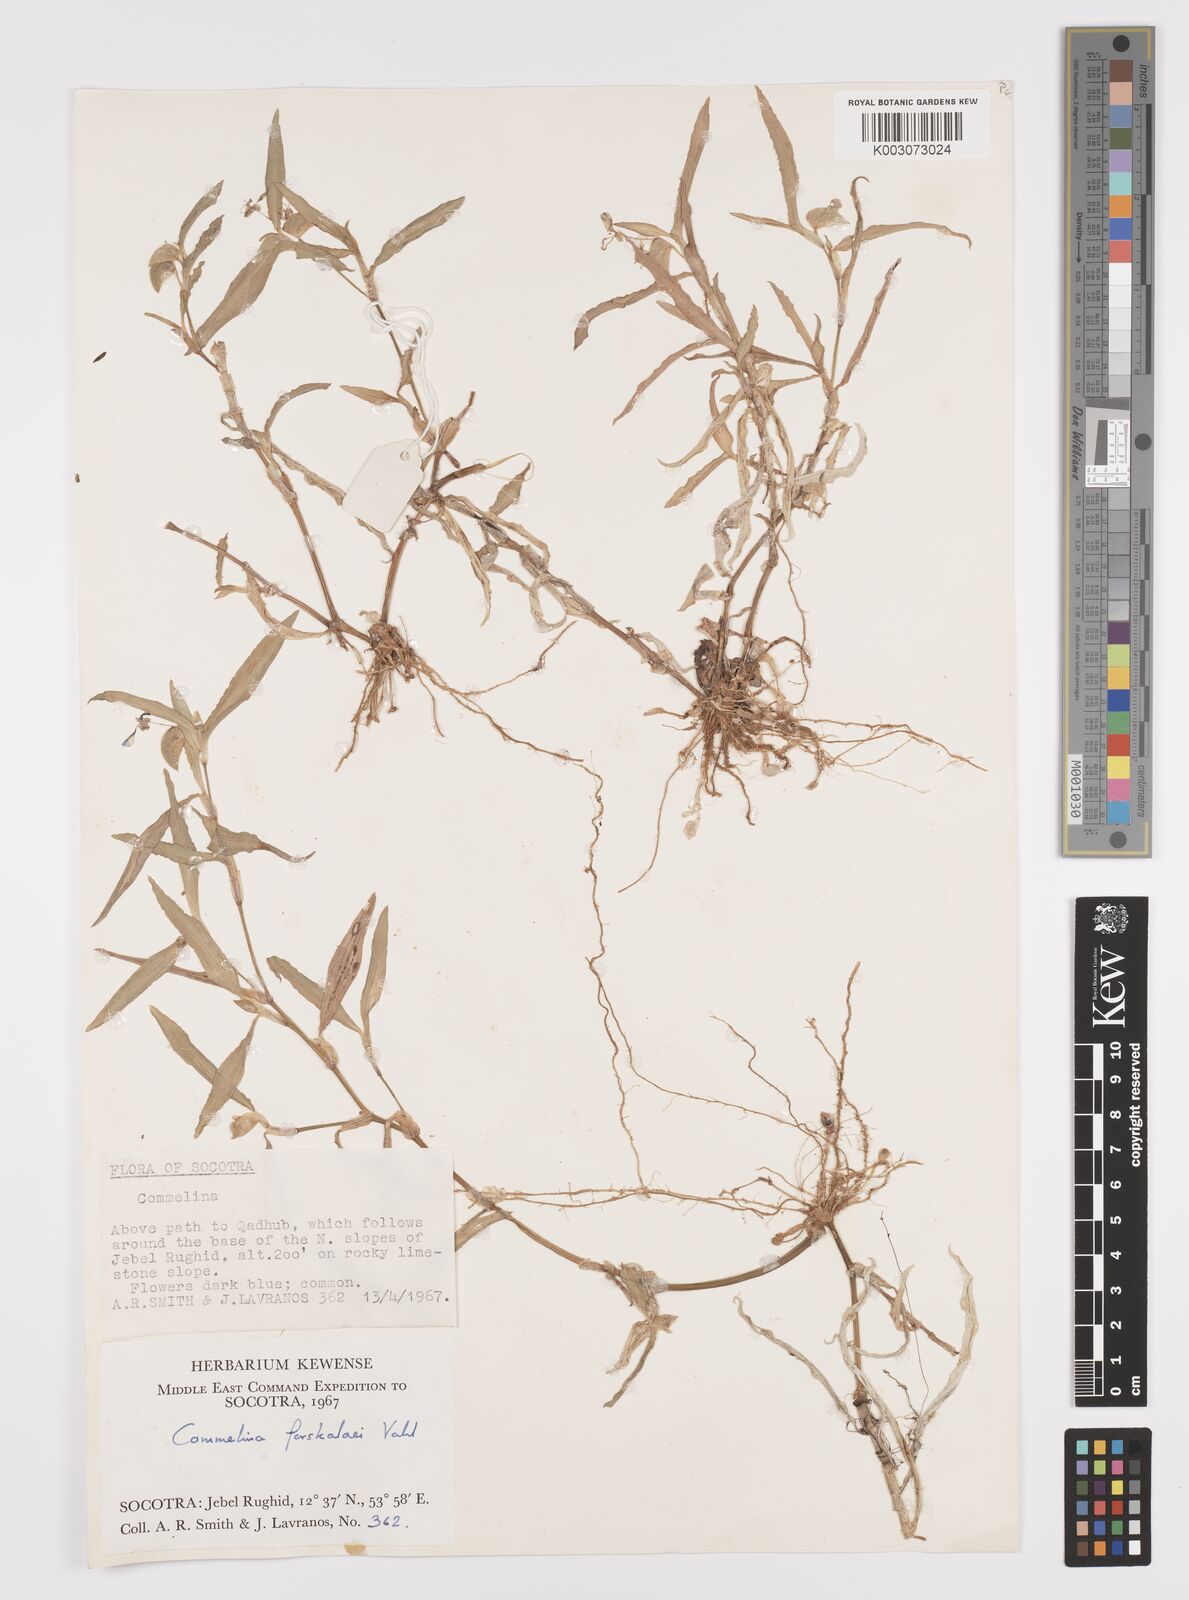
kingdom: Plantae
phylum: Tracheophyta
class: Liliopsida
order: Commelinales
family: Commelinaceae
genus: Commelina
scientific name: Commelina forskaolii
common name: Rat's ear
